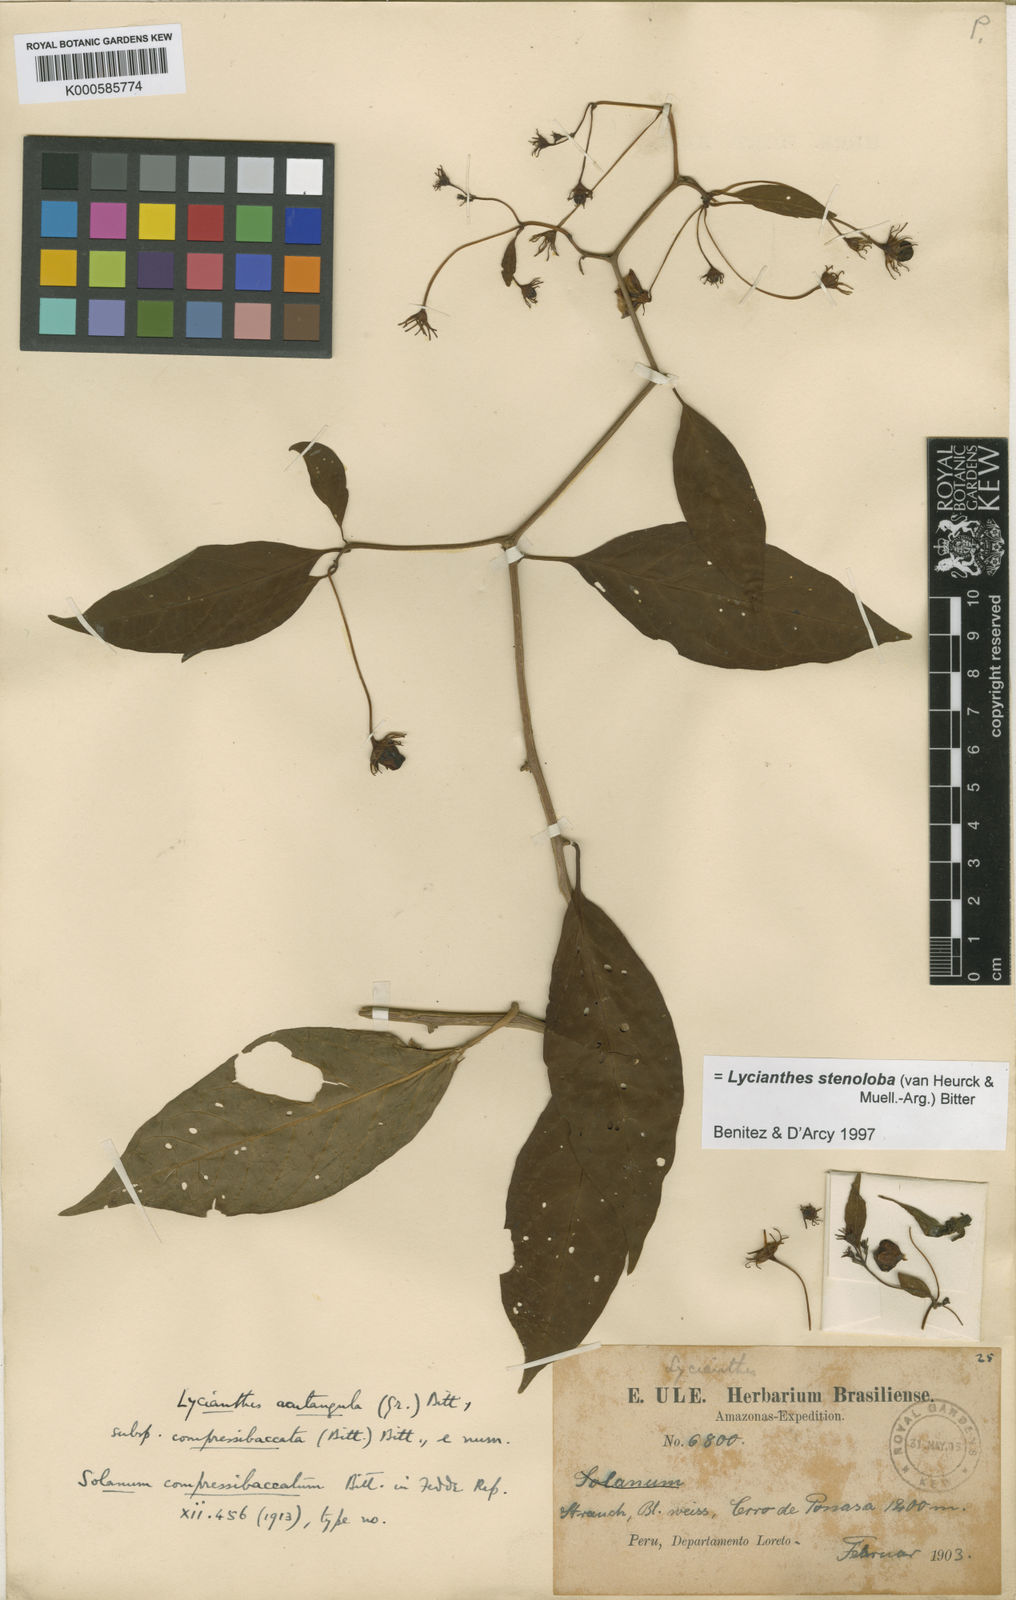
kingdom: Plantae
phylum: Tracheophyta
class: Magnoliopsida
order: Solanales
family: Solanaceae
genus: Lycianthes
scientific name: Lycianthes
